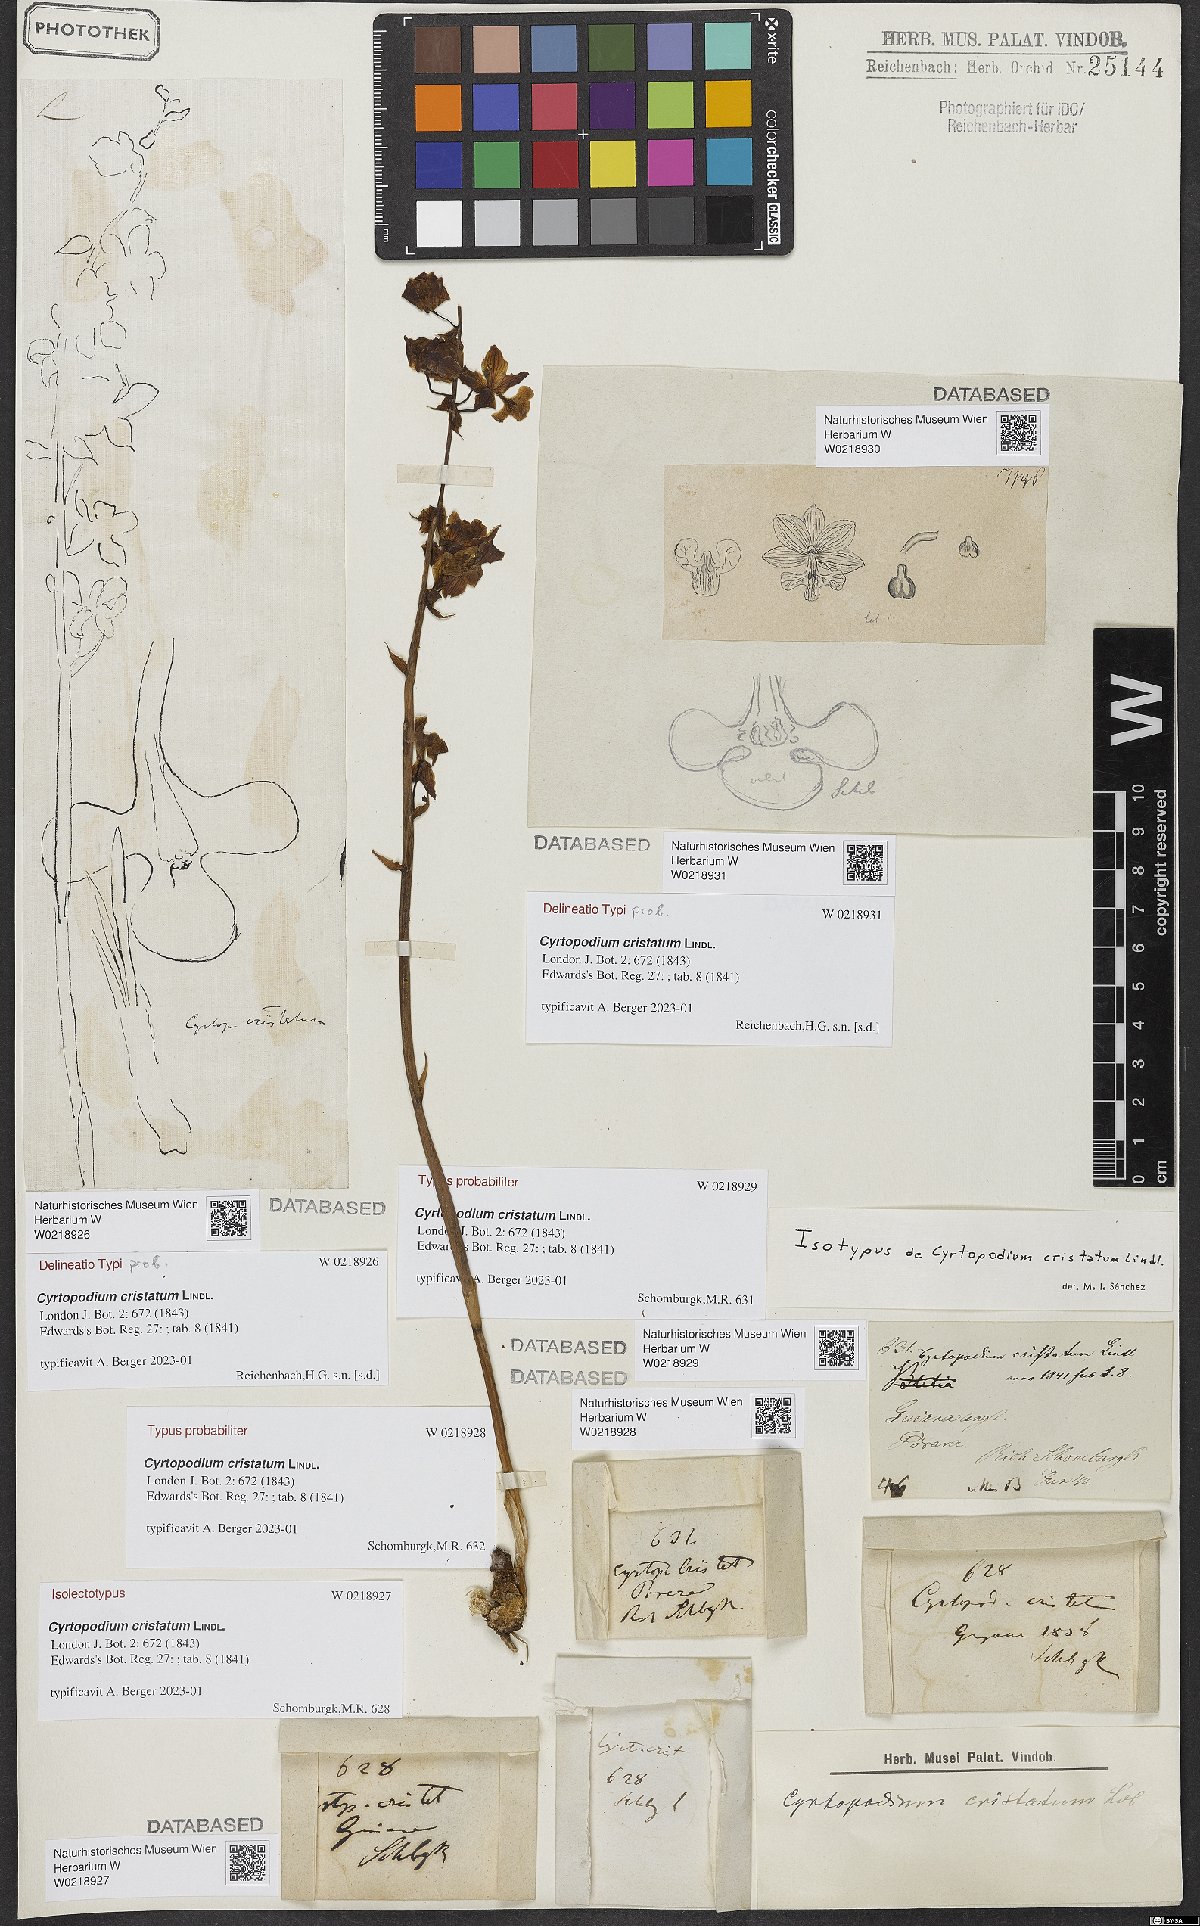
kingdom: Plantae
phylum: Tracheophyta
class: Liliopsida
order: Asparagales
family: Orchidaceae
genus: Cyrtopodium
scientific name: Cyrtopodium cristatum
